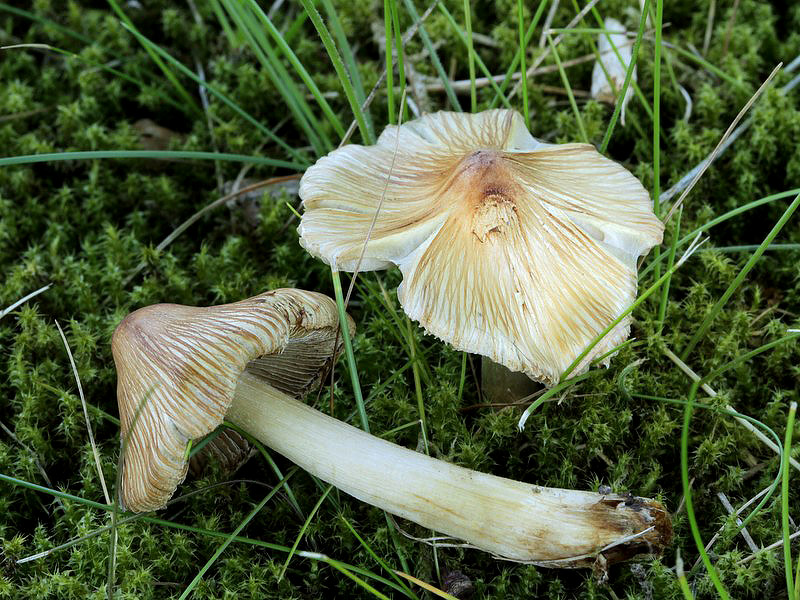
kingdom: Fungi
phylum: Basidiomycota
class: Agaricomycetes
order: Agaricales
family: Inocybaceae
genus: Pseudosperma
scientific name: Pseudosperma rimosum
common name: gulbladet trævlhat
